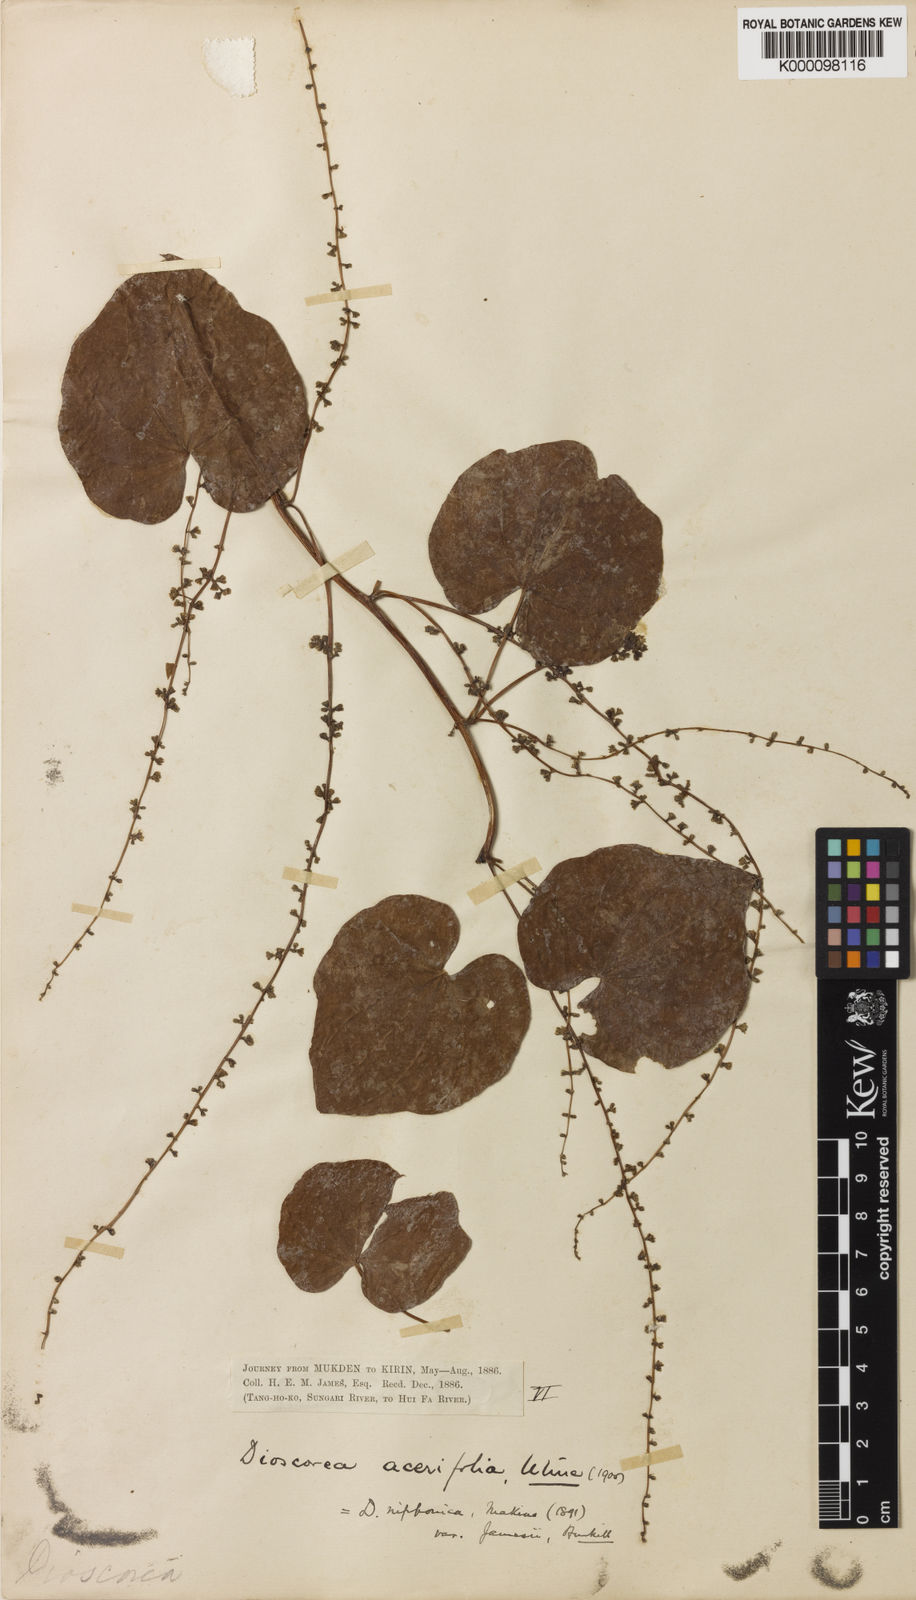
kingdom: Plantae
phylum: Tracheophyta
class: Liliopsida
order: Dioscoreales
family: Dioscoreaceae
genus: Dioscorea
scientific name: Dioscorea nipponica
